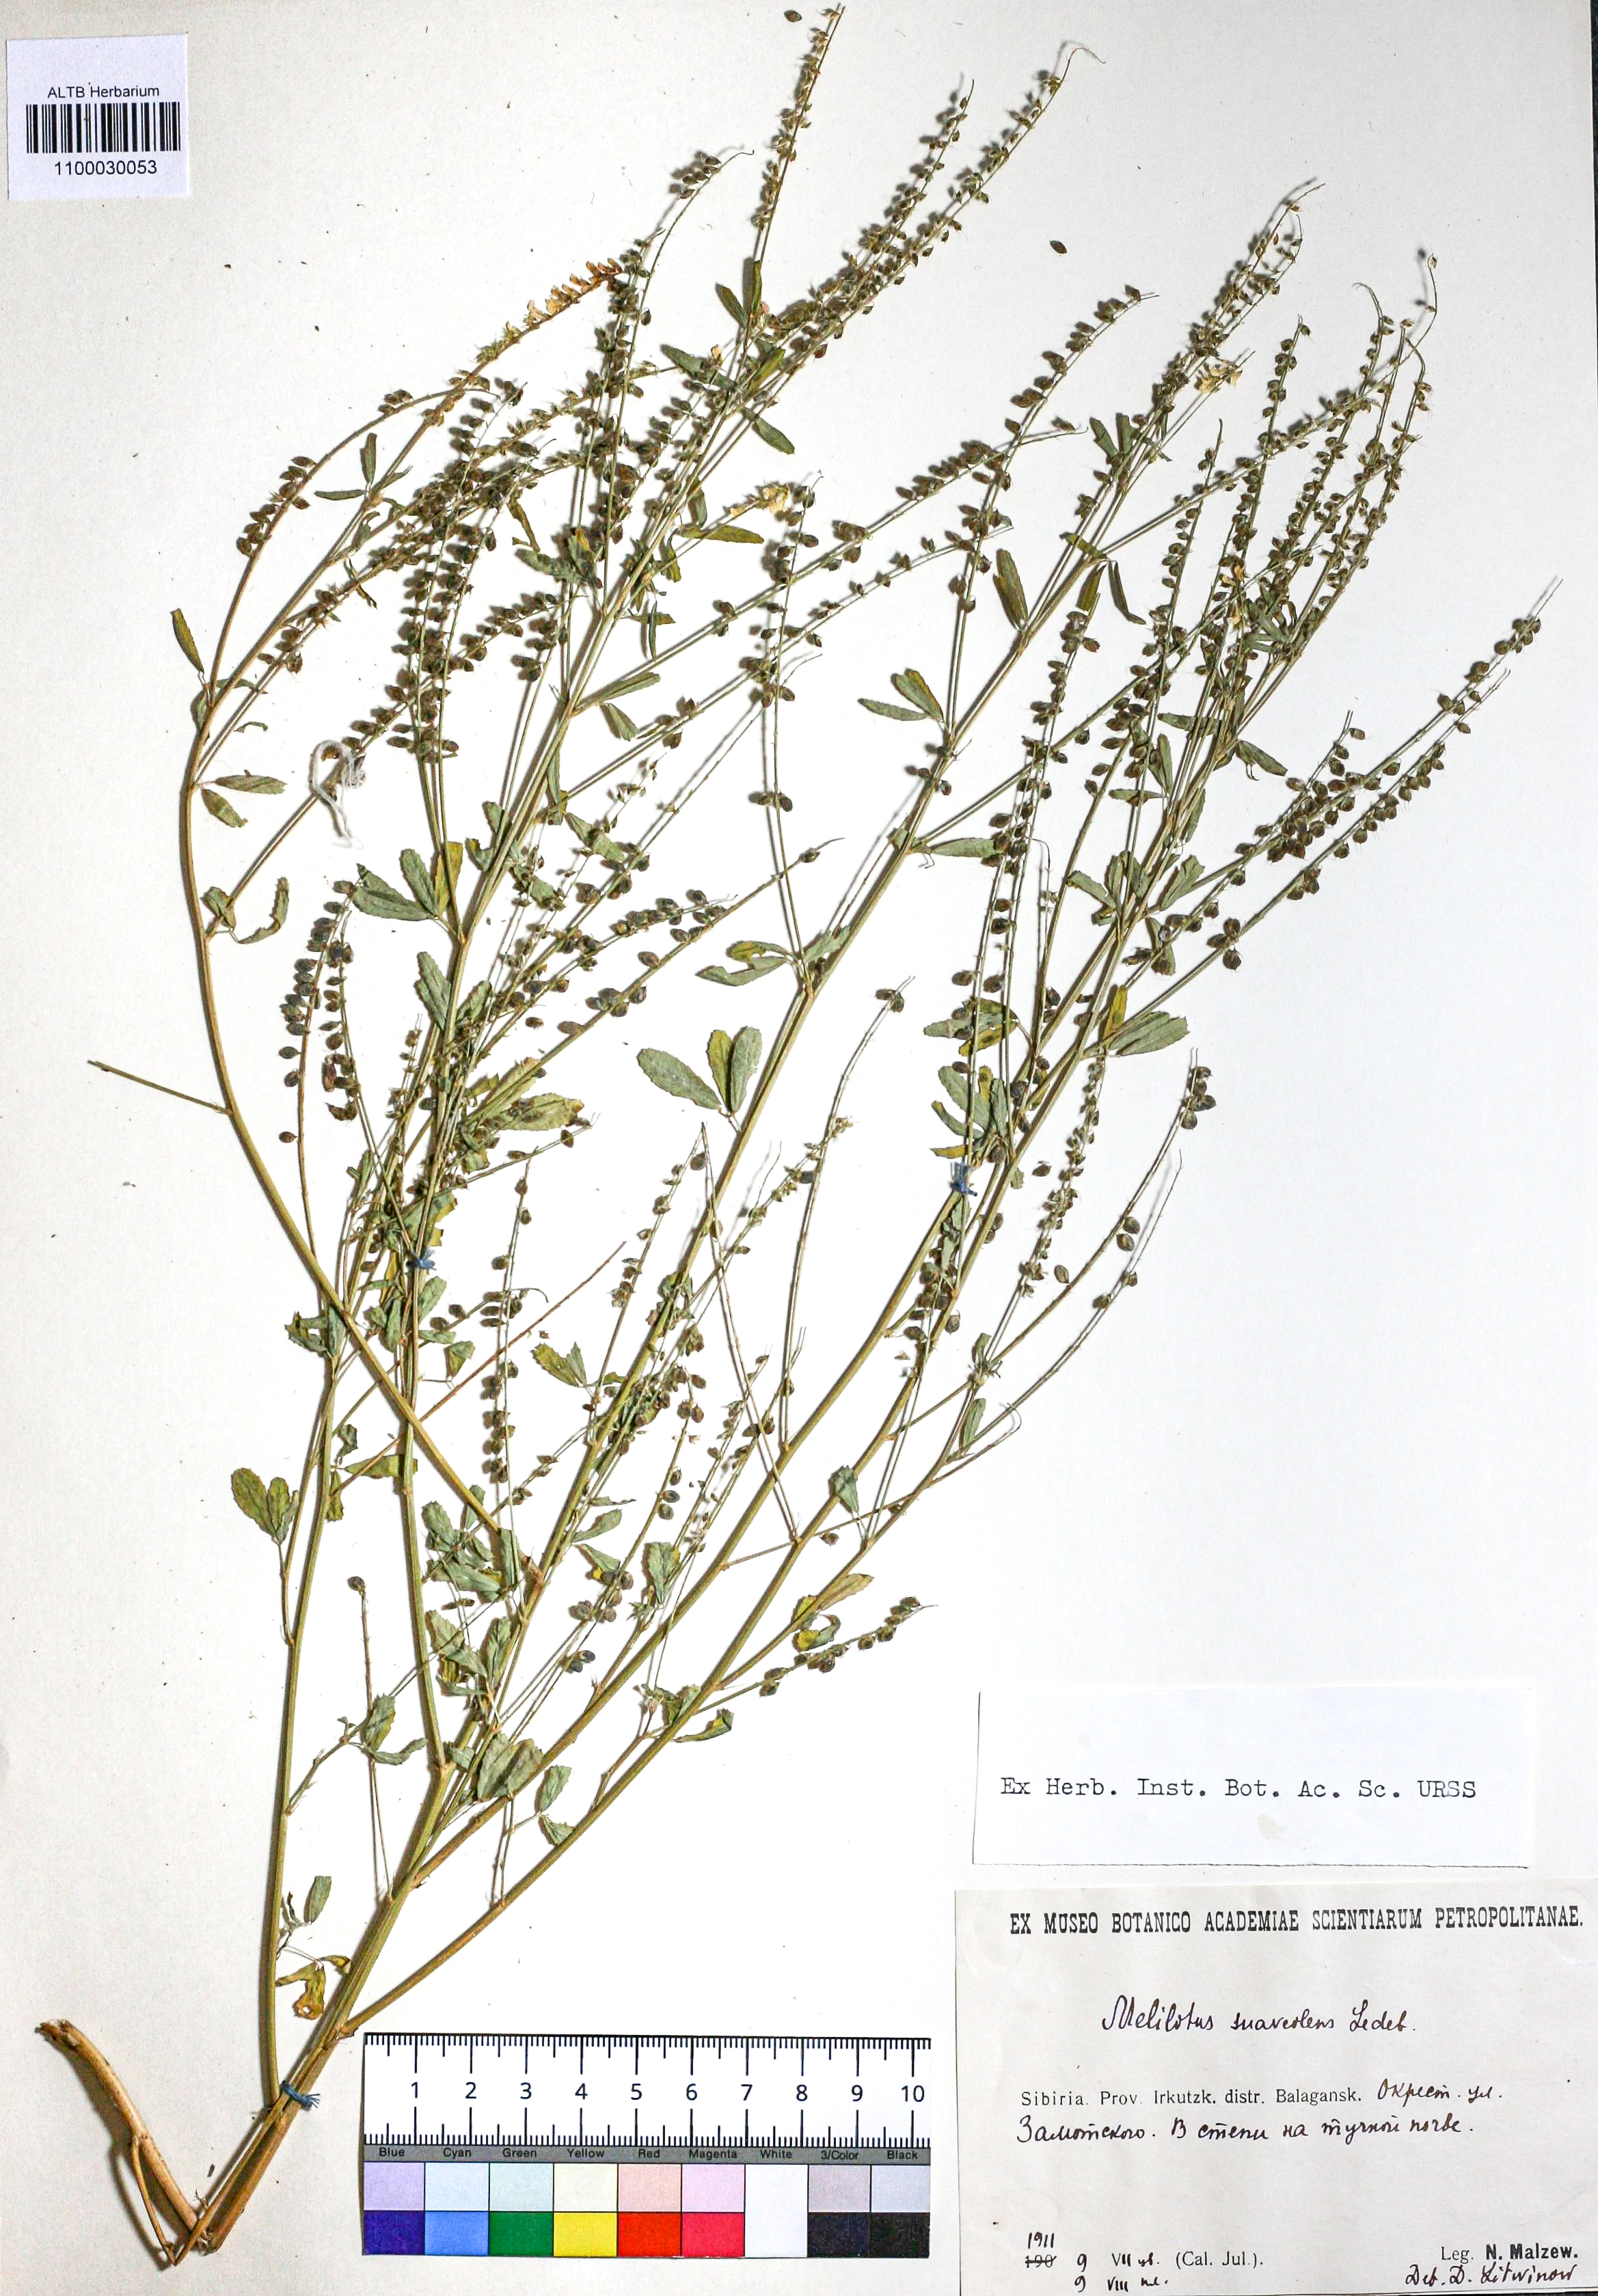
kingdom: Plantae
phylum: Tracheophyta
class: Magnoliopsida
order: Fabales
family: Fabaceae
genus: Melilotus
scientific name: Melilotus suaveolens
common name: Daghestan sweet-clover
